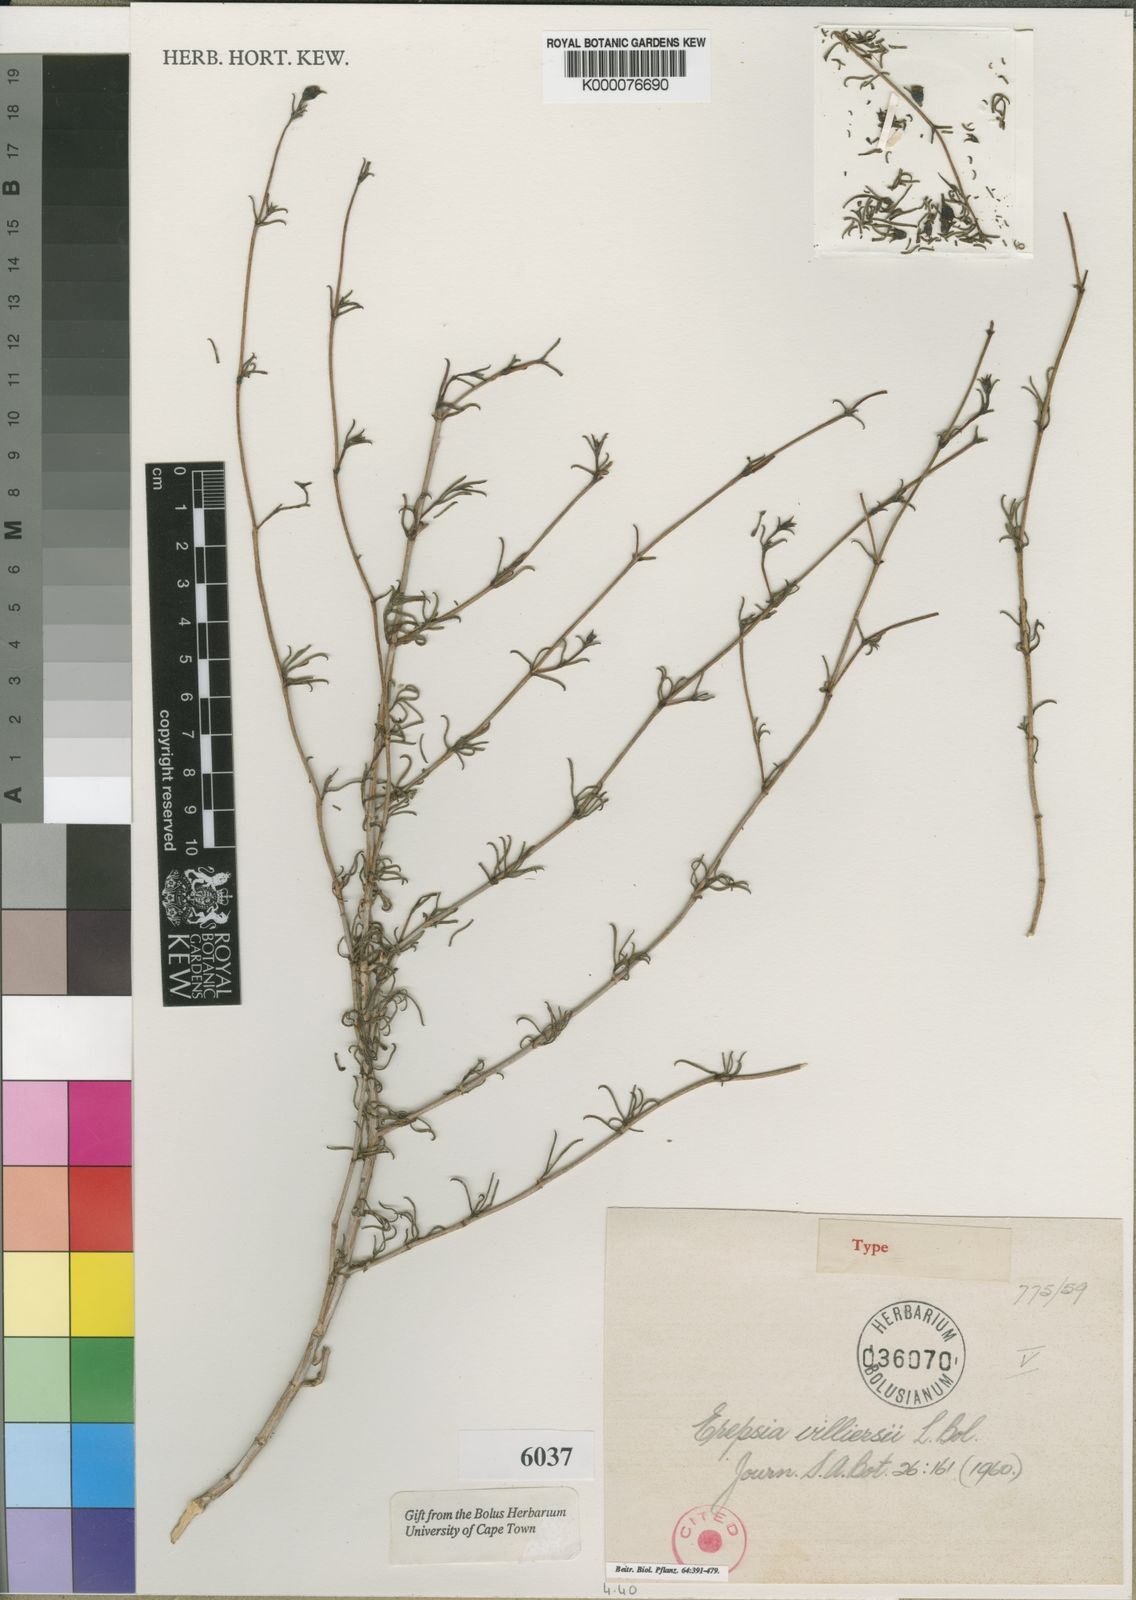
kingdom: Plantae
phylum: Tracheophyta
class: Magnoliopsida
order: Caryophyllales
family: Aizoaceae
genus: Erepsia
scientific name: Erepsia villiersii
